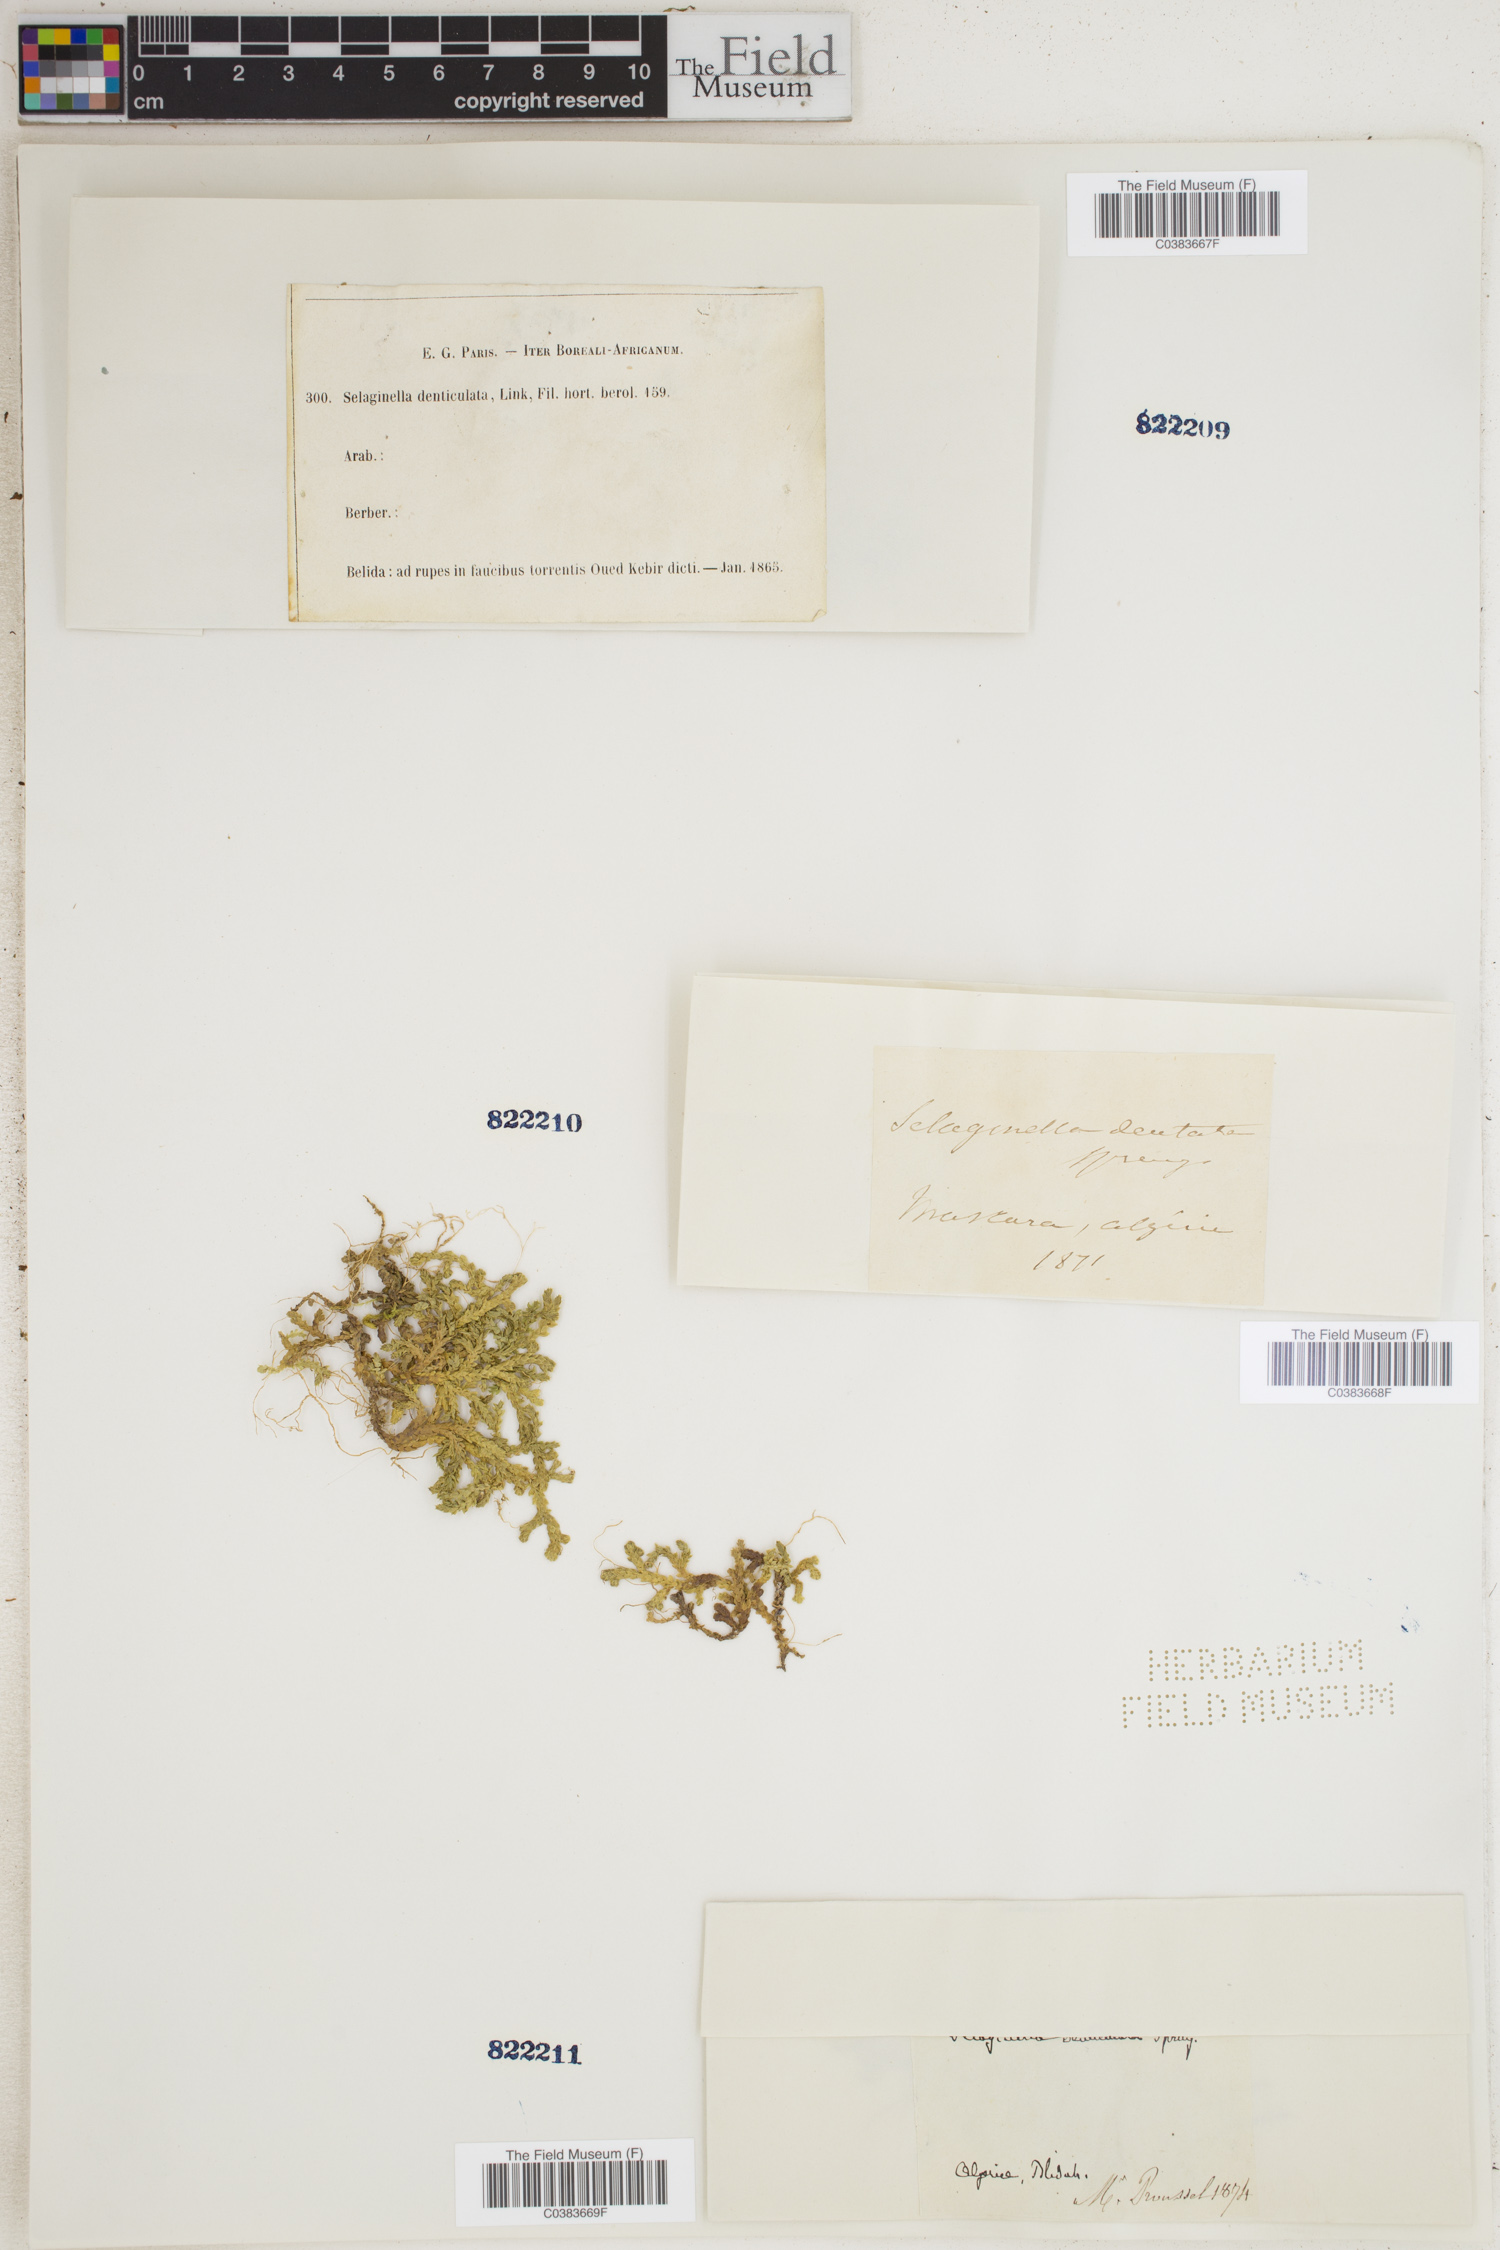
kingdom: Plantae
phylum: Tracheophyta
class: Lycopodiopsida
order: Selaginellales
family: Selaginellaceae
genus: Selaginella
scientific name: Selaginella denudata
